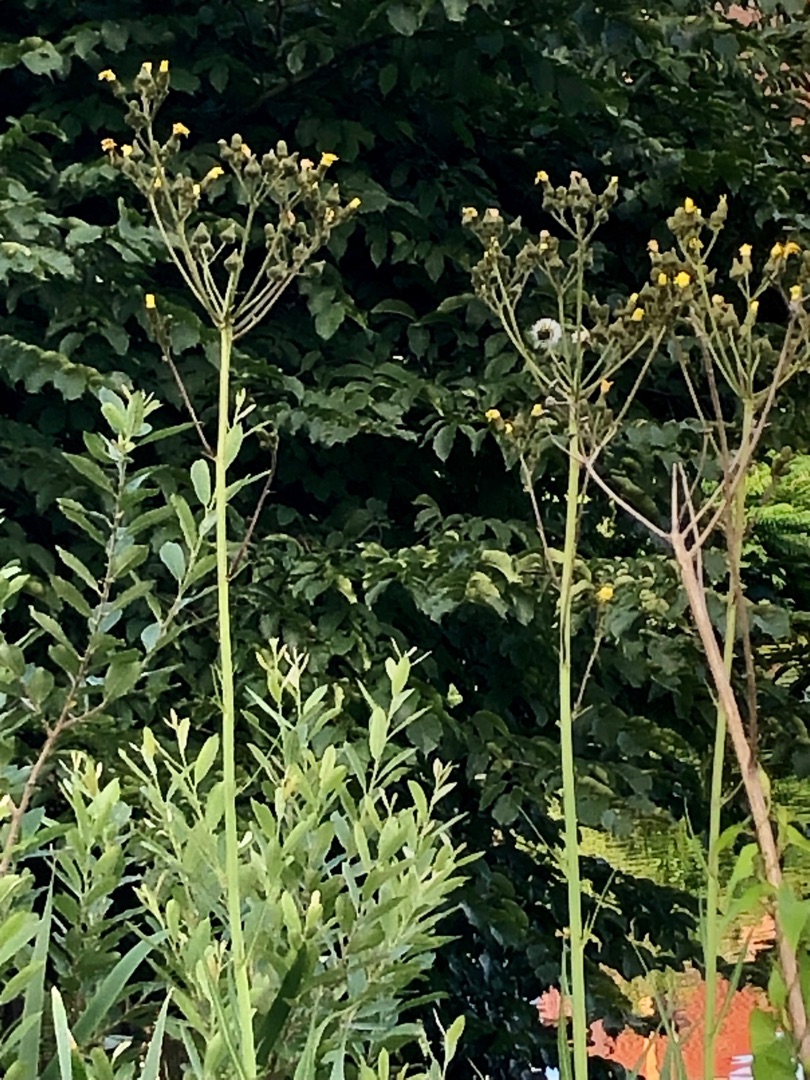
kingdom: Plantae
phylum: Tracheophyta
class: Magnoliopsida
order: Asterales
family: Asteraceae
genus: Sonchus
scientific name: Sonchus palustris
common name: Kær-svinemælk
